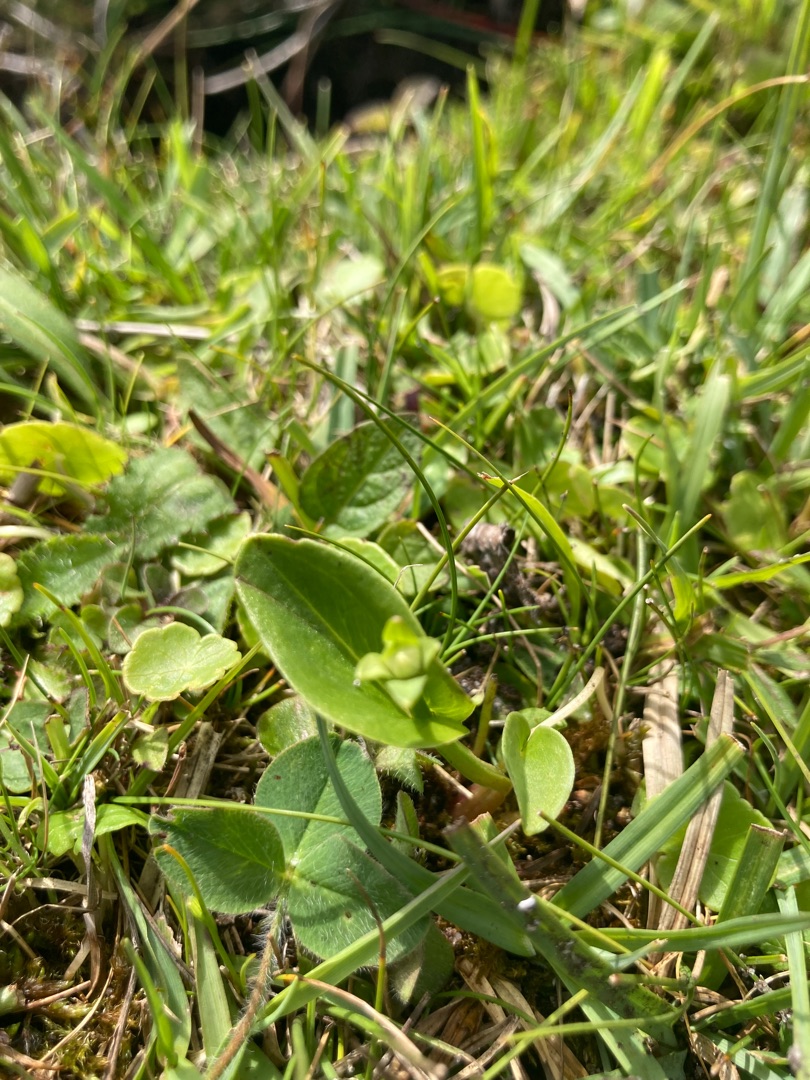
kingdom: Plantae
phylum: Tracheophyta
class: Magnoliopsida
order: Celastrales
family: Parnassiaceae
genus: Parnassia
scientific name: Parnassia palustris
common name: Leverurt
